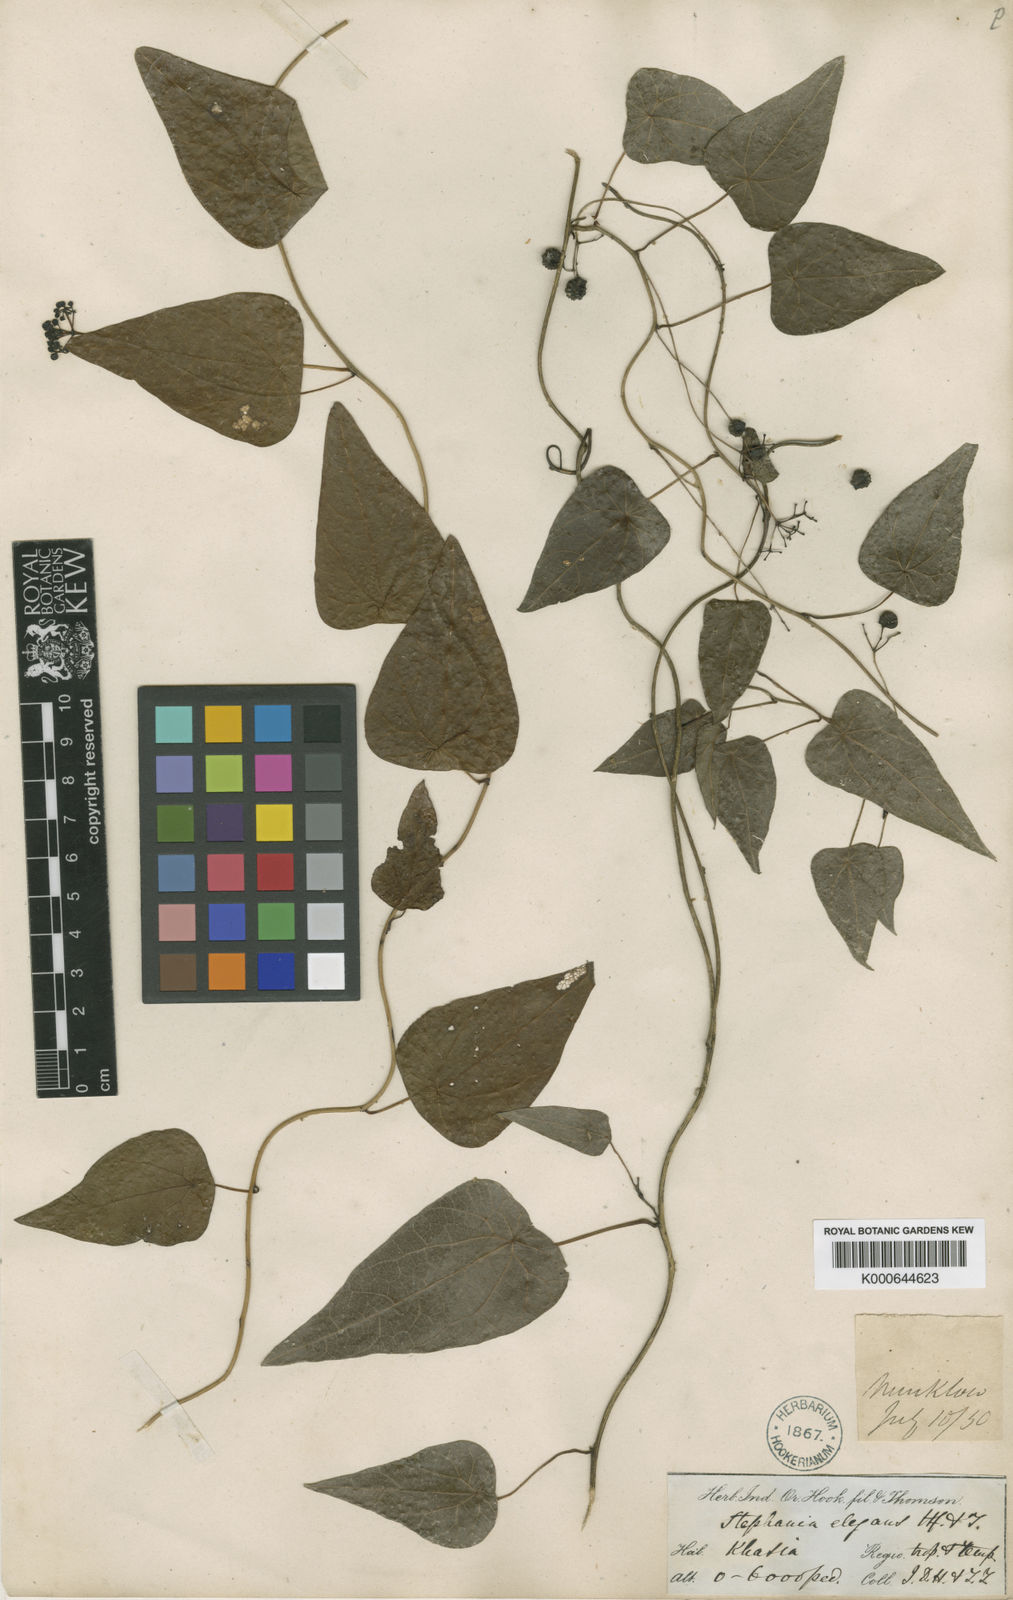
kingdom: Plantae
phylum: Tracheophyta
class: Magnoliopsida
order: Ranunculales
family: Menispermaceae
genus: Stephania
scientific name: Stephania elegans
